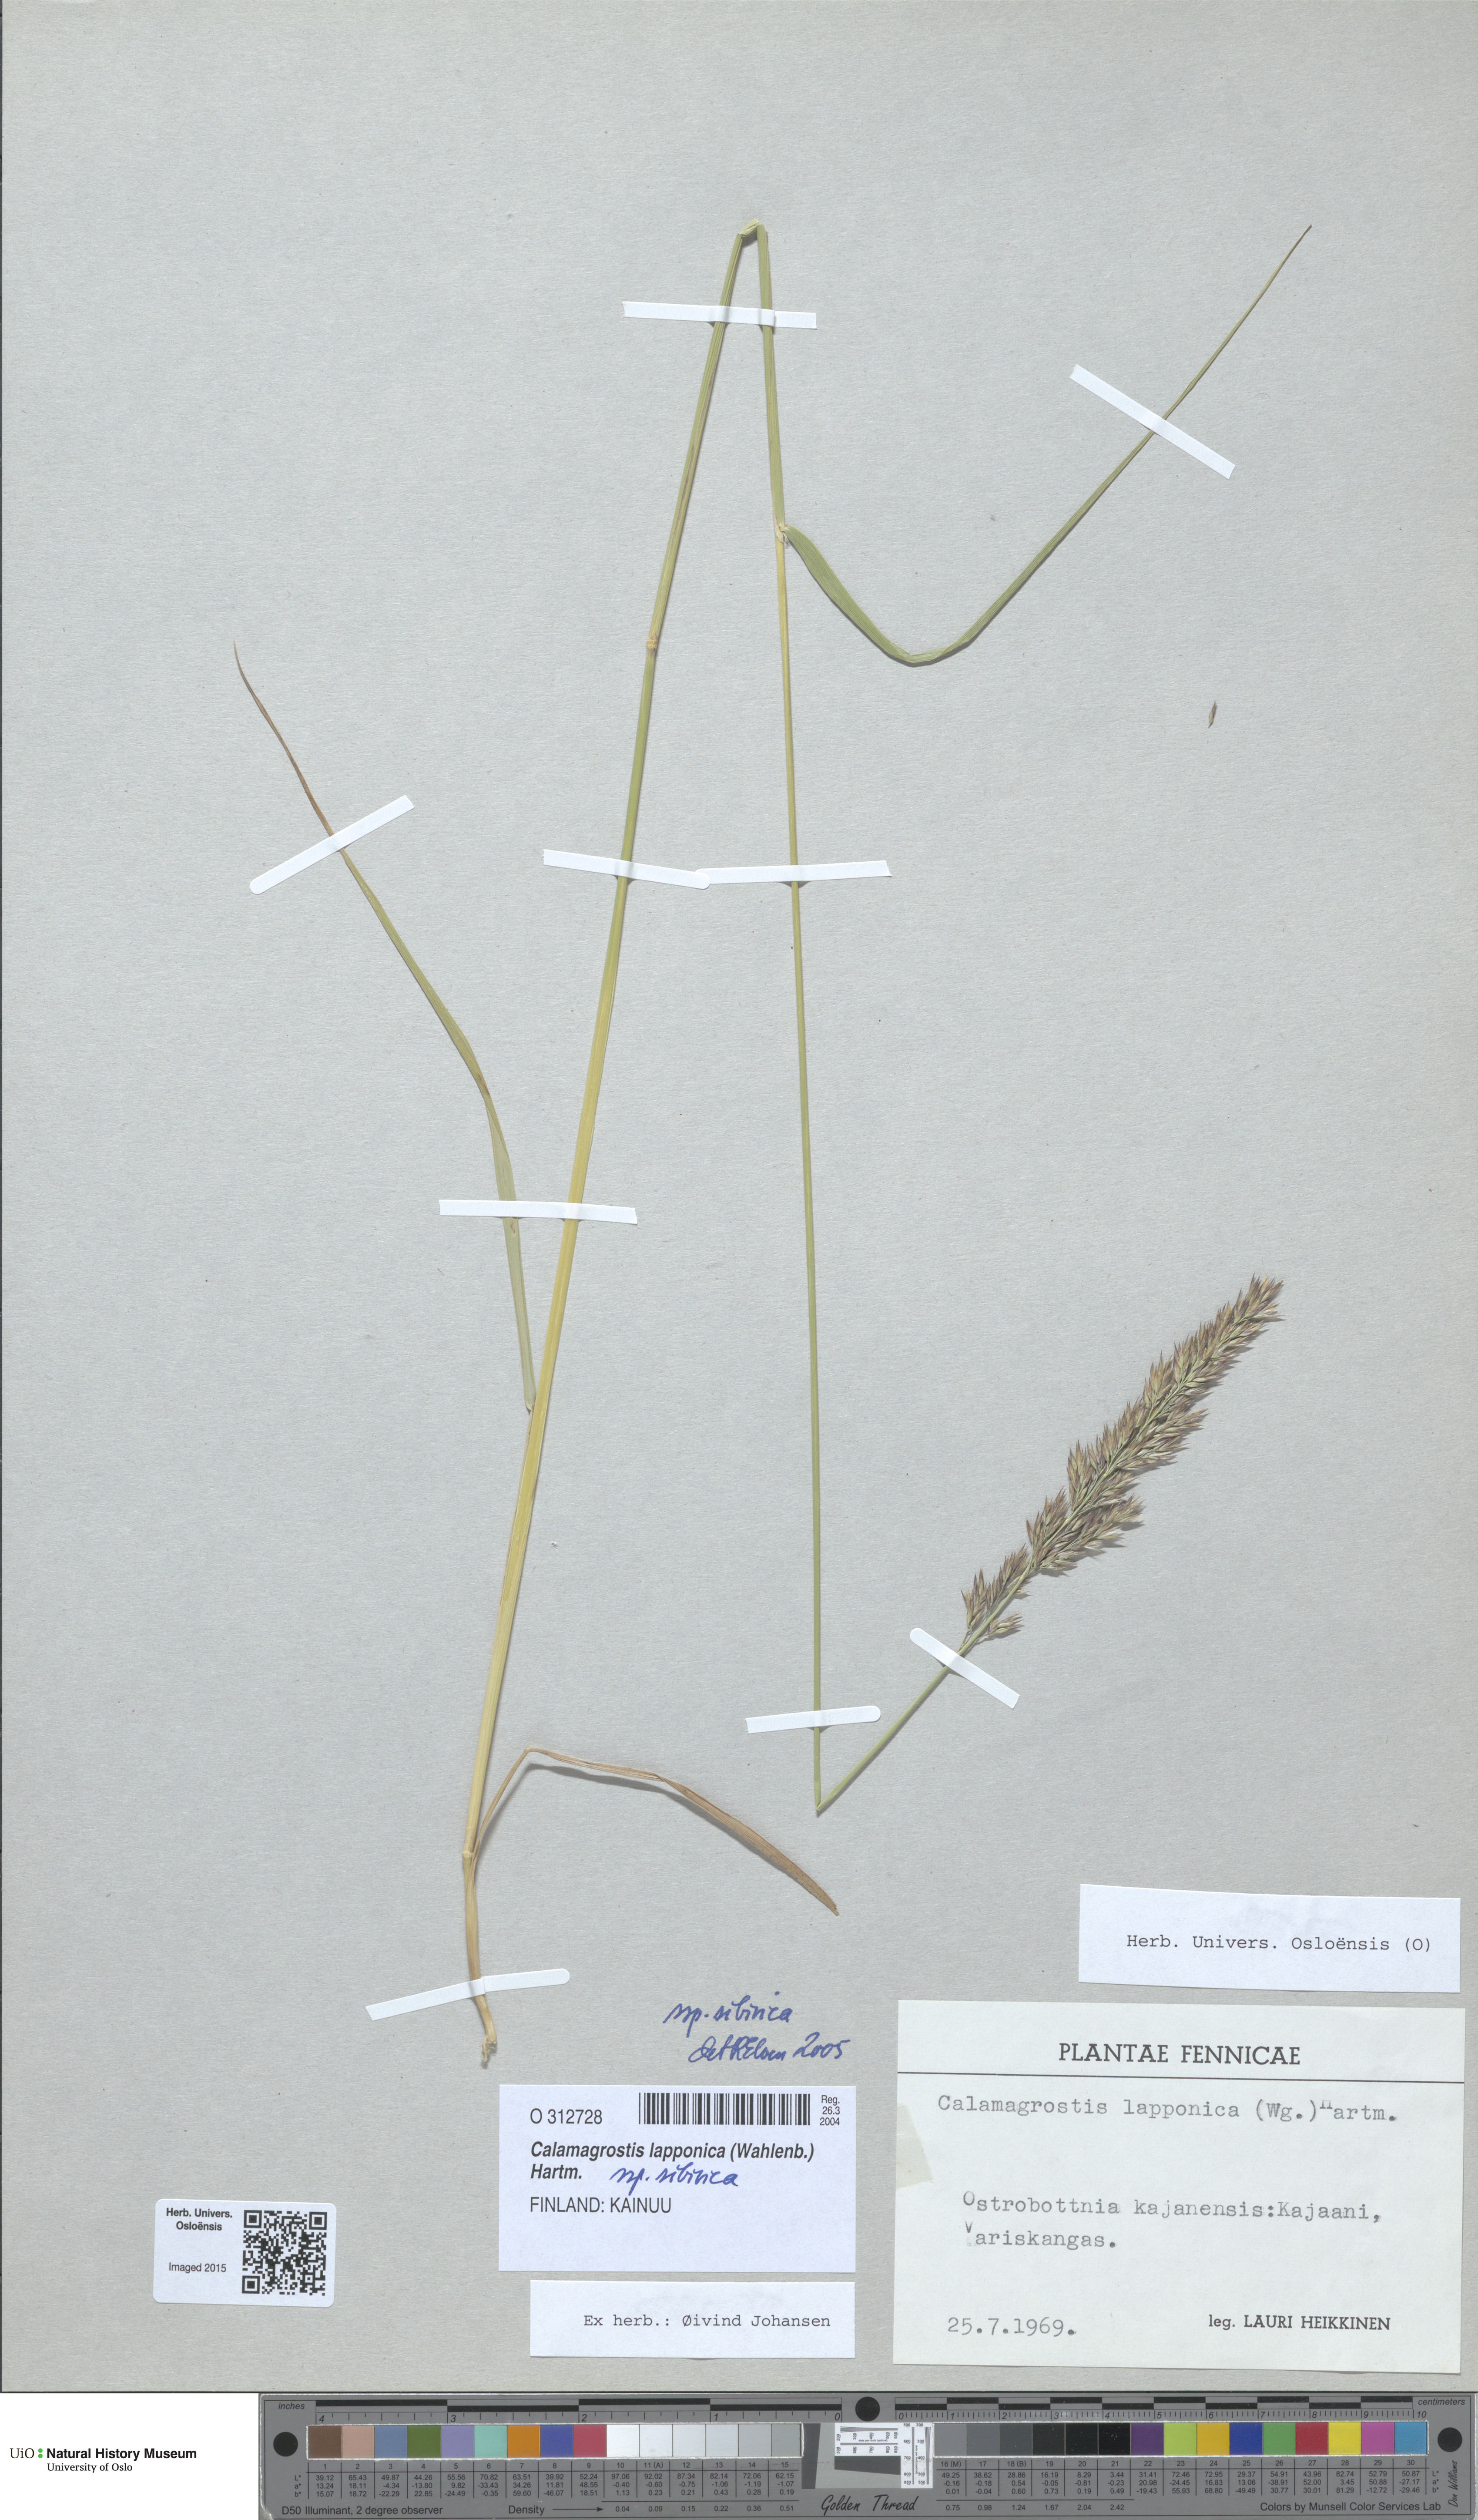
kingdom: Plantae
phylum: Tracheophyta
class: Liliopsida
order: Poales
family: Poaceae
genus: Calamagrostis
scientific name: Calamagrostis lapponica
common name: Lapland reedgrass
